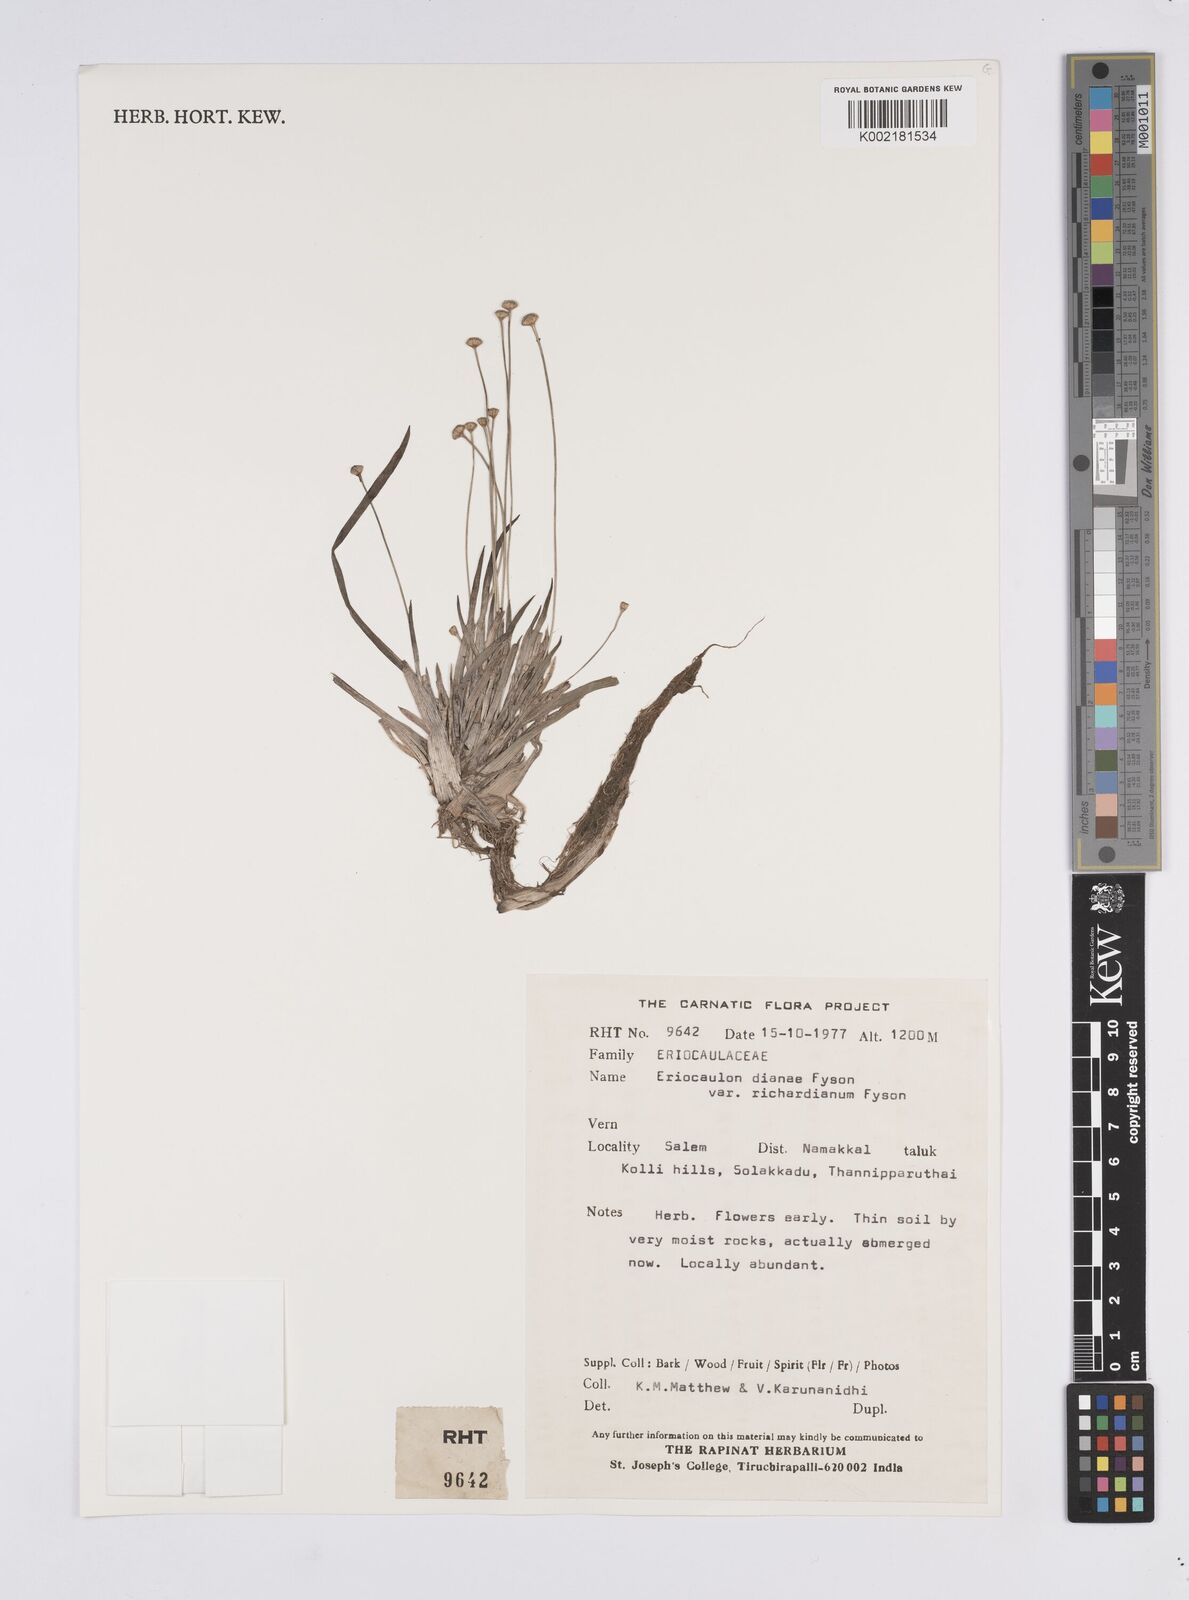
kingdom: Plantae
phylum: Tracheophyta
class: Liliopsida
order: Poales
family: Eriocaulaceae
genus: Eriocaulon
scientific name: Eriocaulon heterolepis
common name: Buttonhead pipewort
